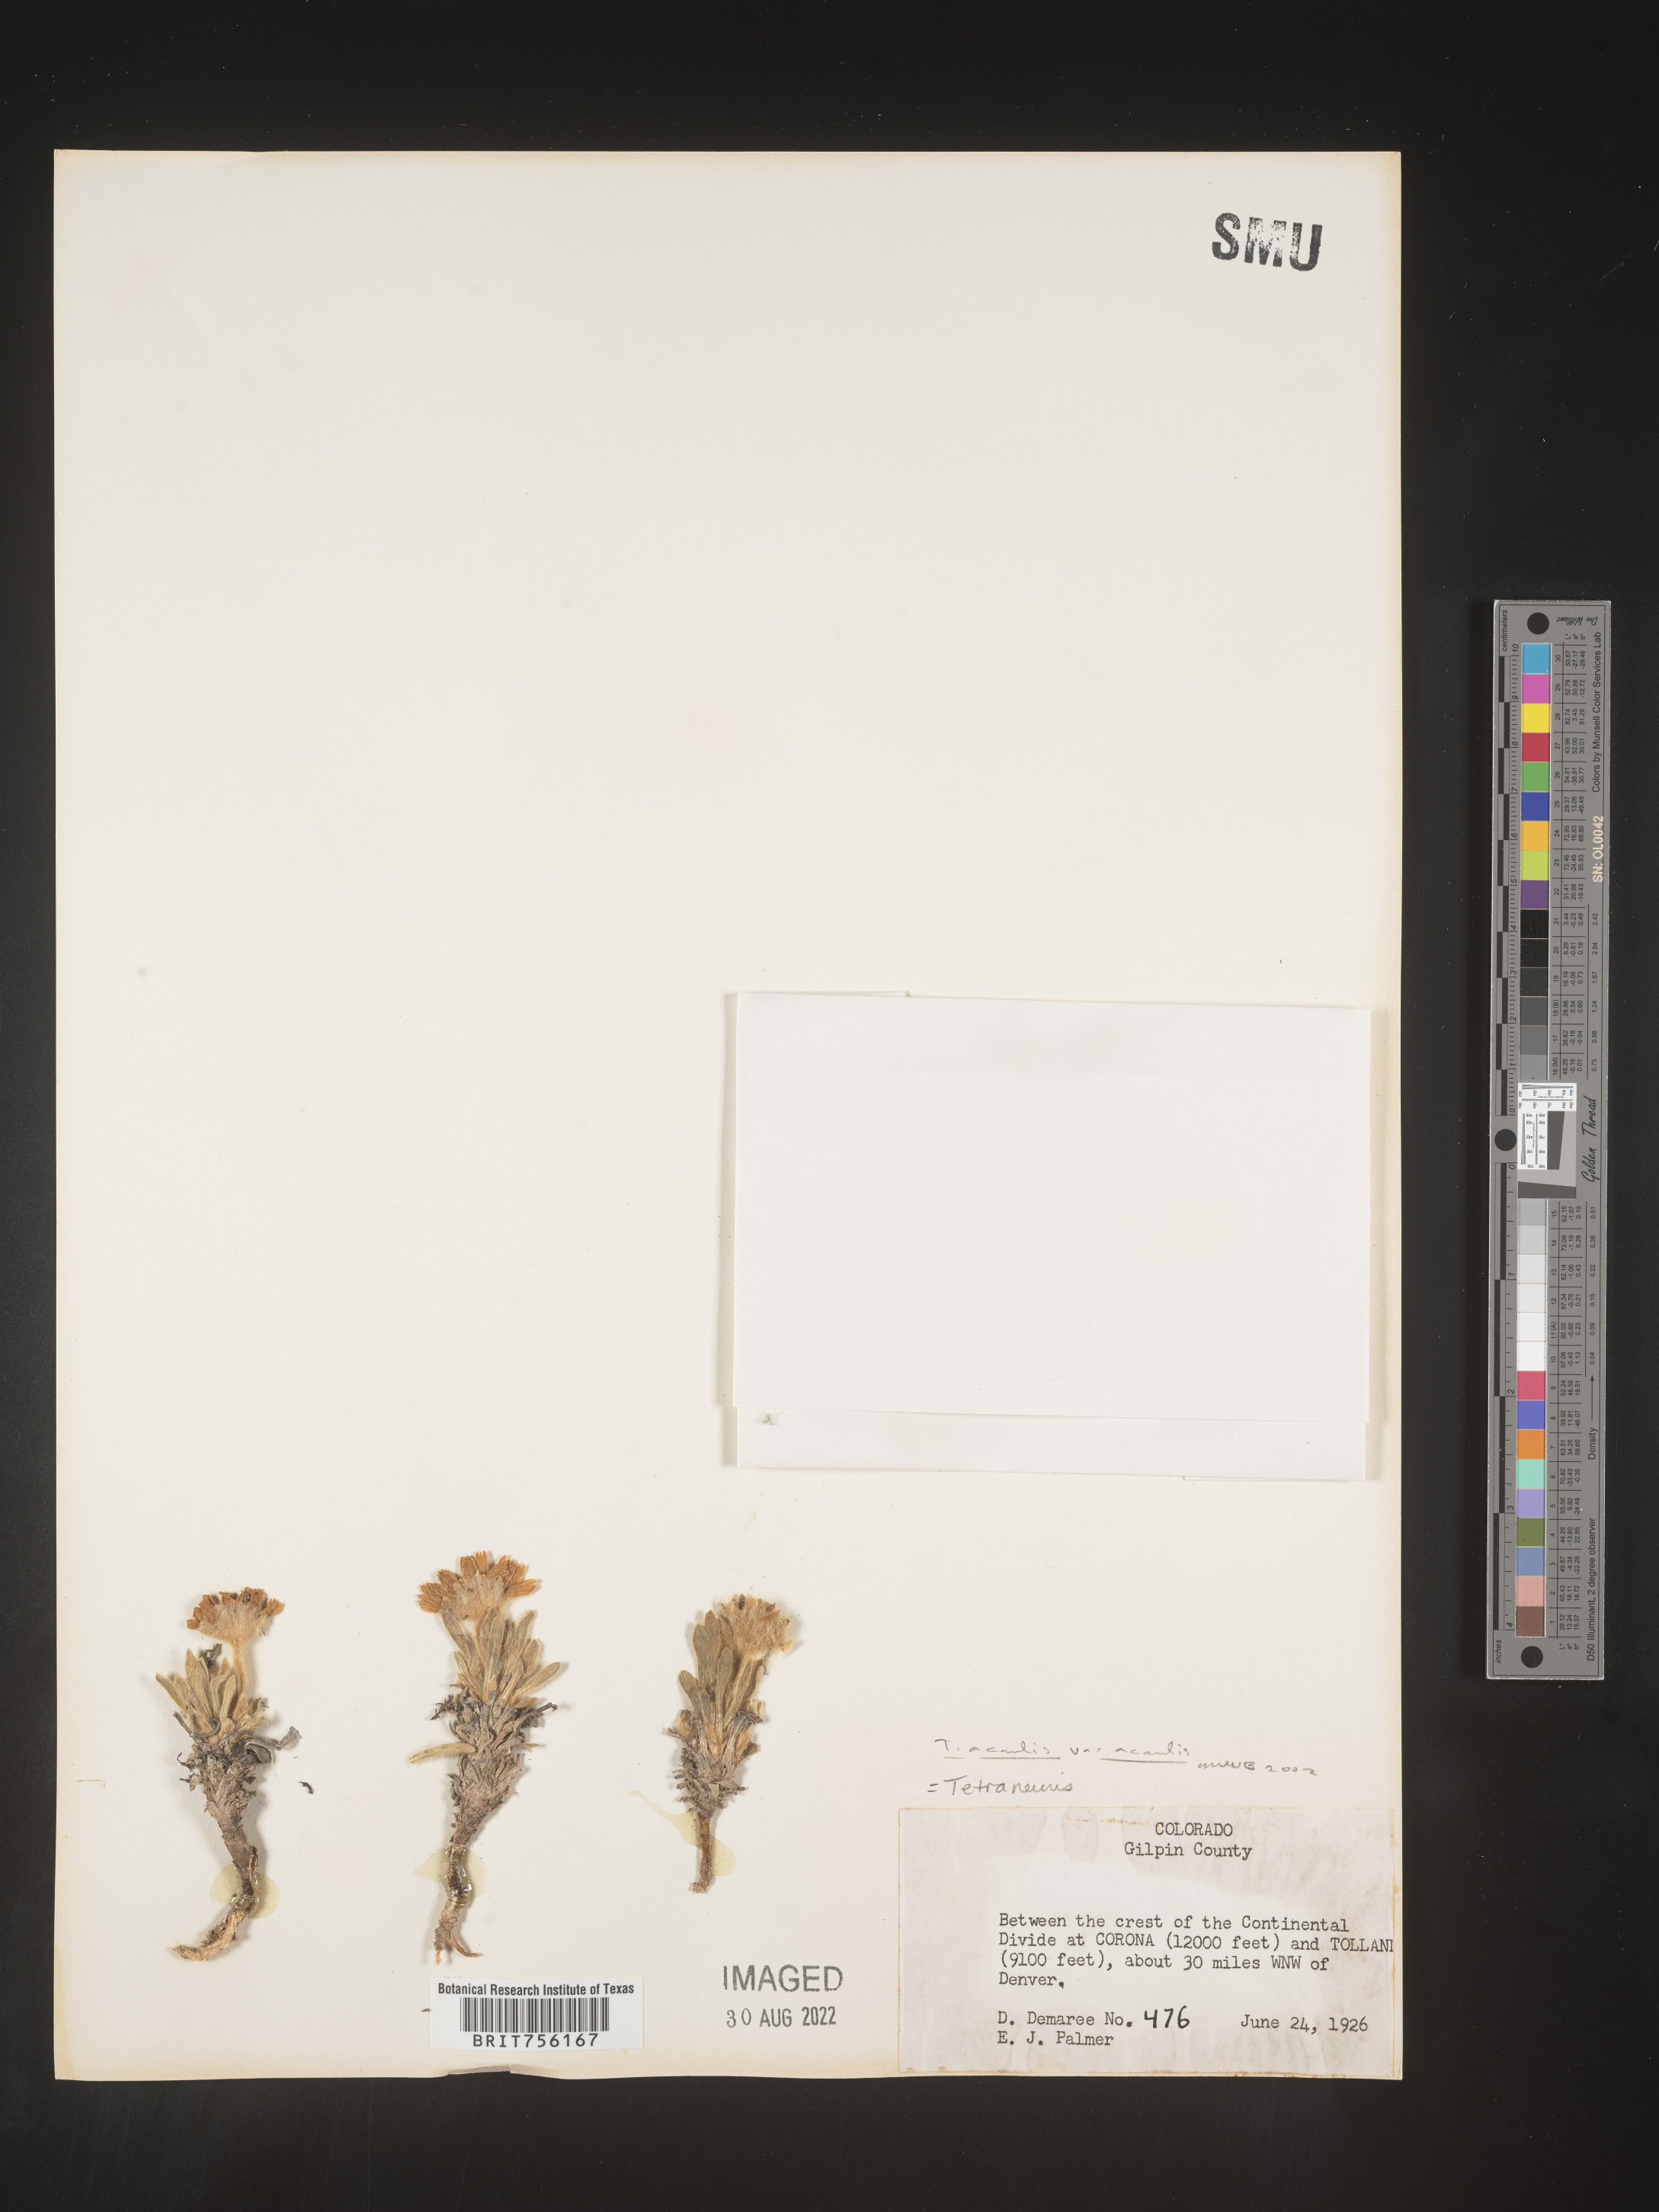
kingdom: Plantae
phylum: Tracheophyta
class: Magnoliopsida
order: Asterales
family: Asteraceae
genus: Tetraneuris
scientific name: Tetraneuris acaulis
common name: Butte marigold
